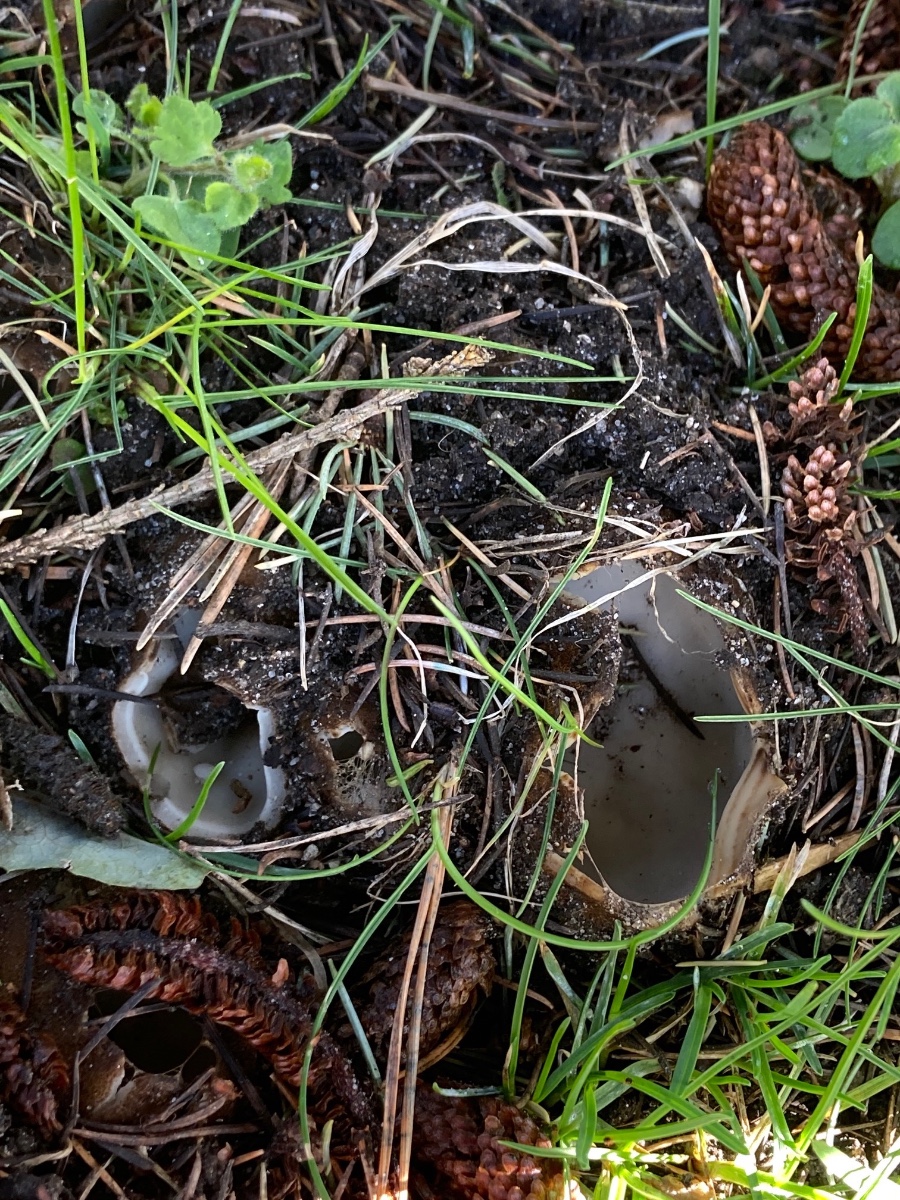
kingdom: Fungi
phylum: Ascomycota
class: Pezizomycetes
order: Pezizales
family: Pyronemataceae
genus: Geopora
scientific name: Geopora sumneriana
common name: vår-jordbæger
